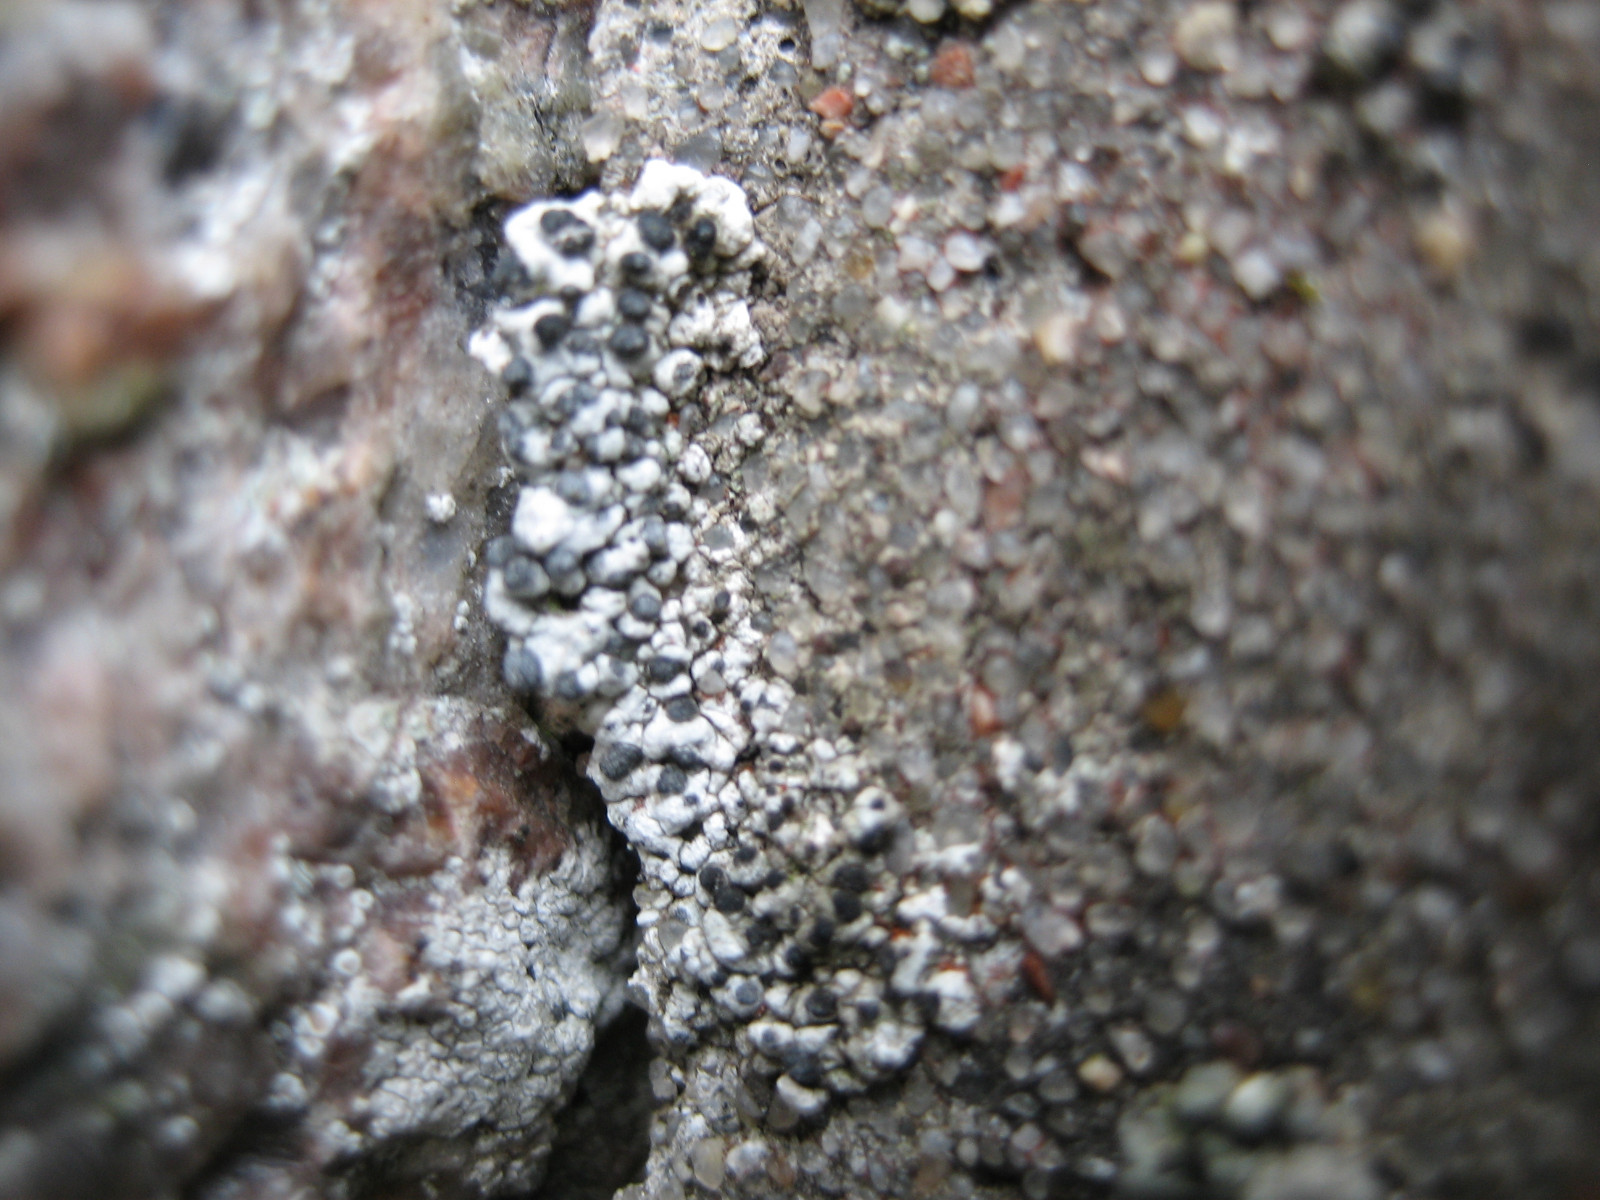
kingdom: Fungi
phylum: Ascomycota
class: Lecanoromycetes
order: Caliciales
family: Caliciaceae
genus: Diplotomma
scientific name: Diplotomma alboatrum
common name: sorthvid sortskivelav
